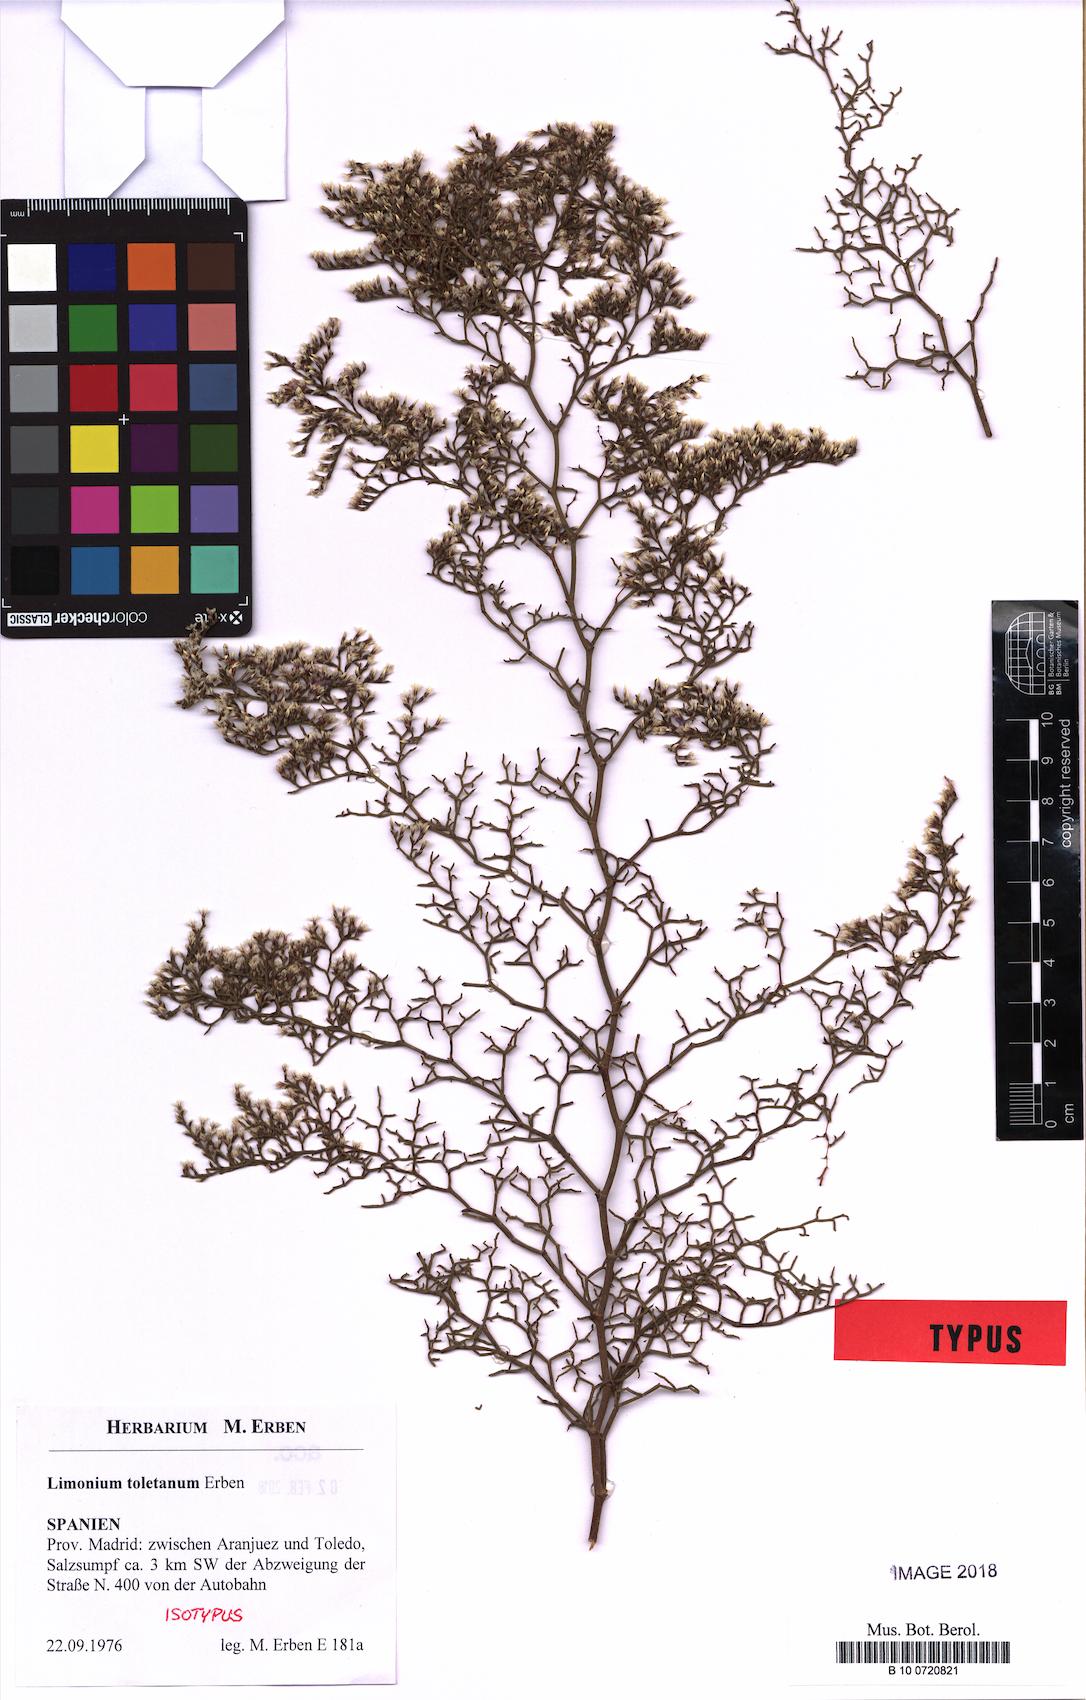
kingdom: Plantae
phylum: Tracheophyta
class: Magnoliopsida
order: Caryophyllales
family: Plumbaginaceae
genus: Limonium
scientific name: Limonium toletanum
